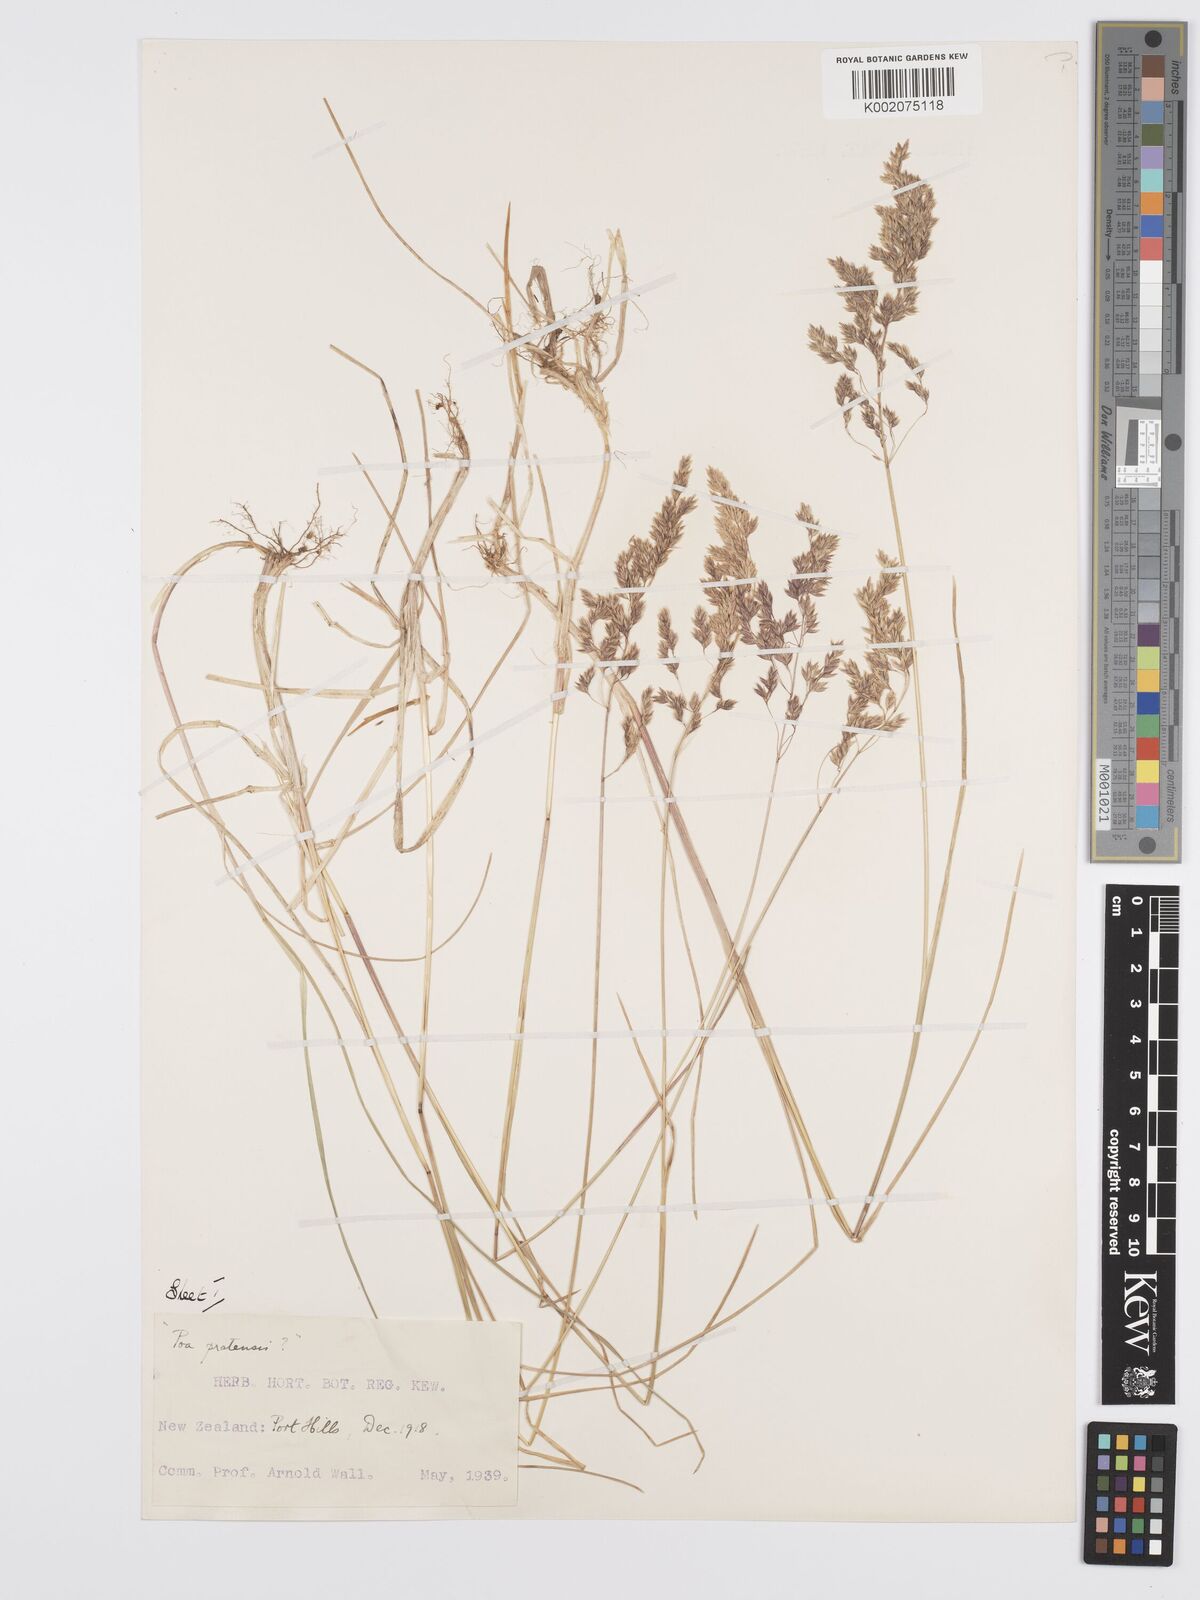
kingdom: Plantae
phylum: Tracheophyta
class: Liliopsida
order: Poales
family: Poaceae
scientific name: Poaceae
